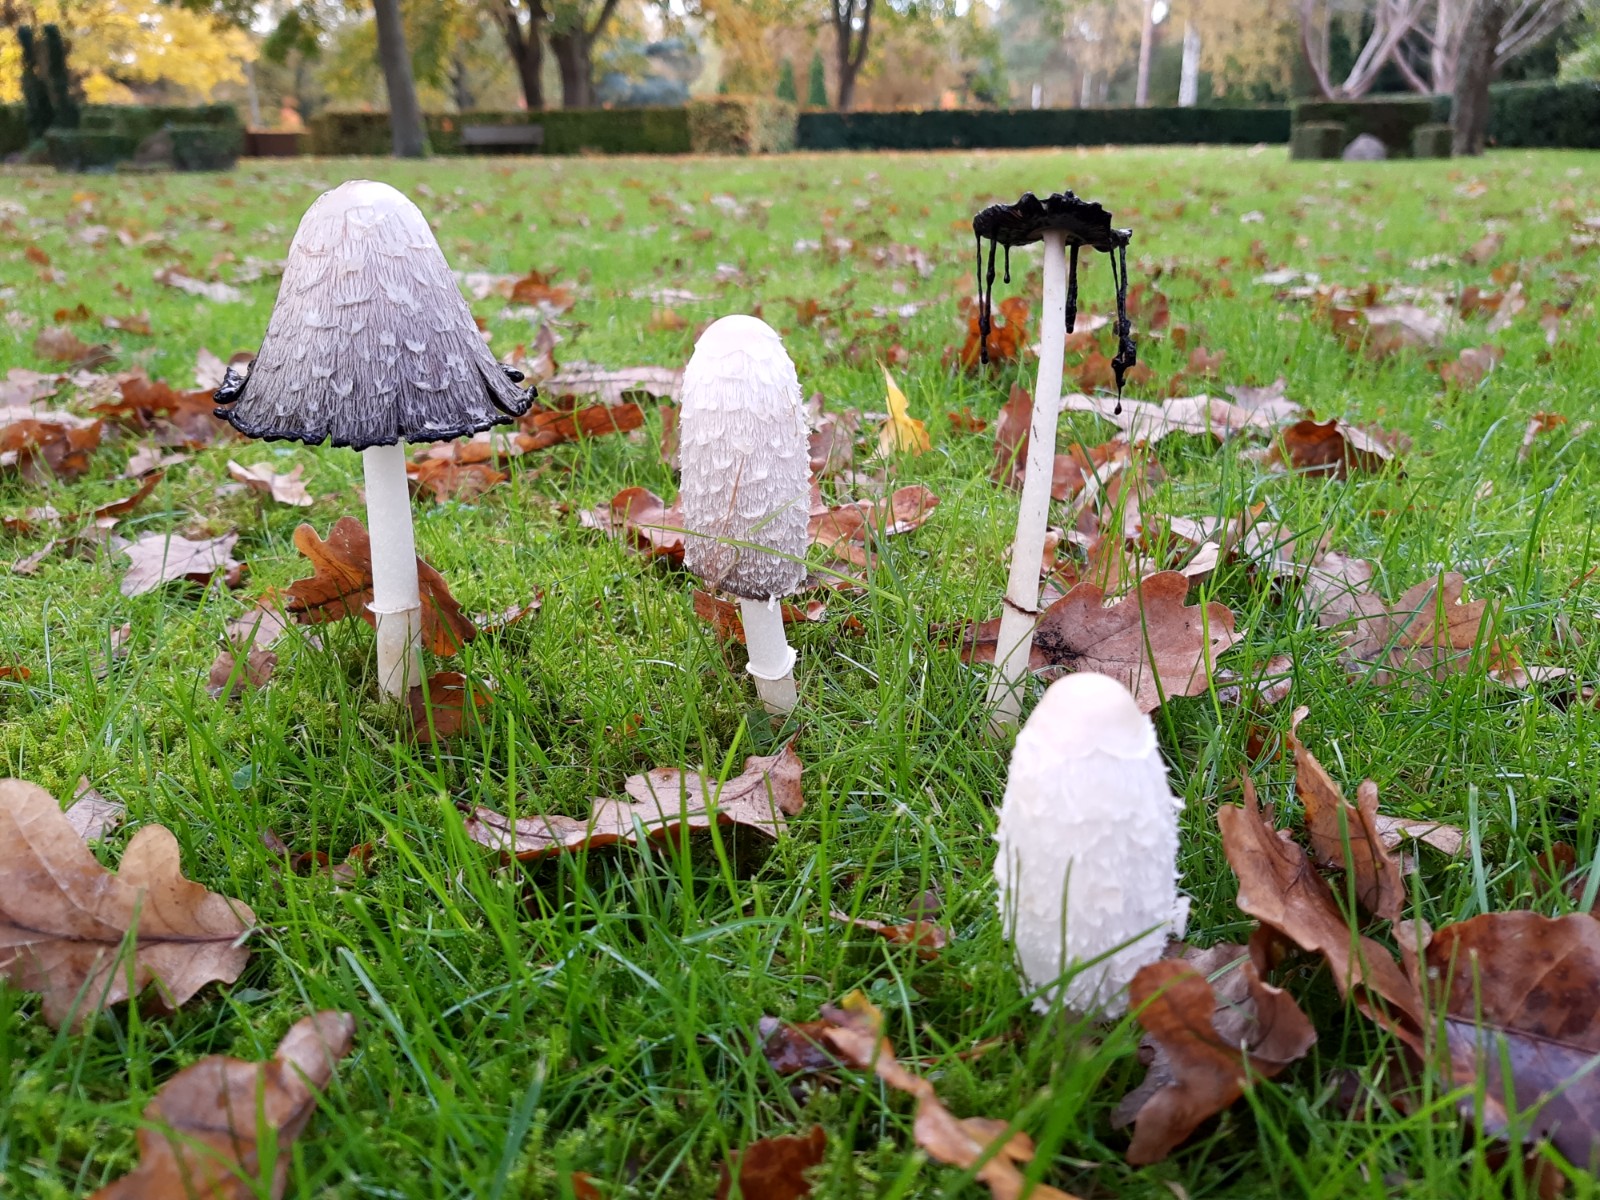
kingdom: Fungi
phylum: Basidiomycota
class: Agaricomycetes
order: Agaricales
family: Agaricaceae
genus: Coprinus
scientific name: Coprinus comatus
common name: stor parykhat
